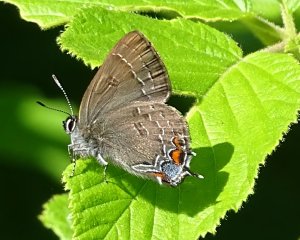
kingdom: Animalia
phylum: Arthropoda
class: Insecta
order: Lepidoptera
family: Lycaenidae
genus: Satyrium
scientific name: Satyrium calanus
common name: Banded Hairstreak
